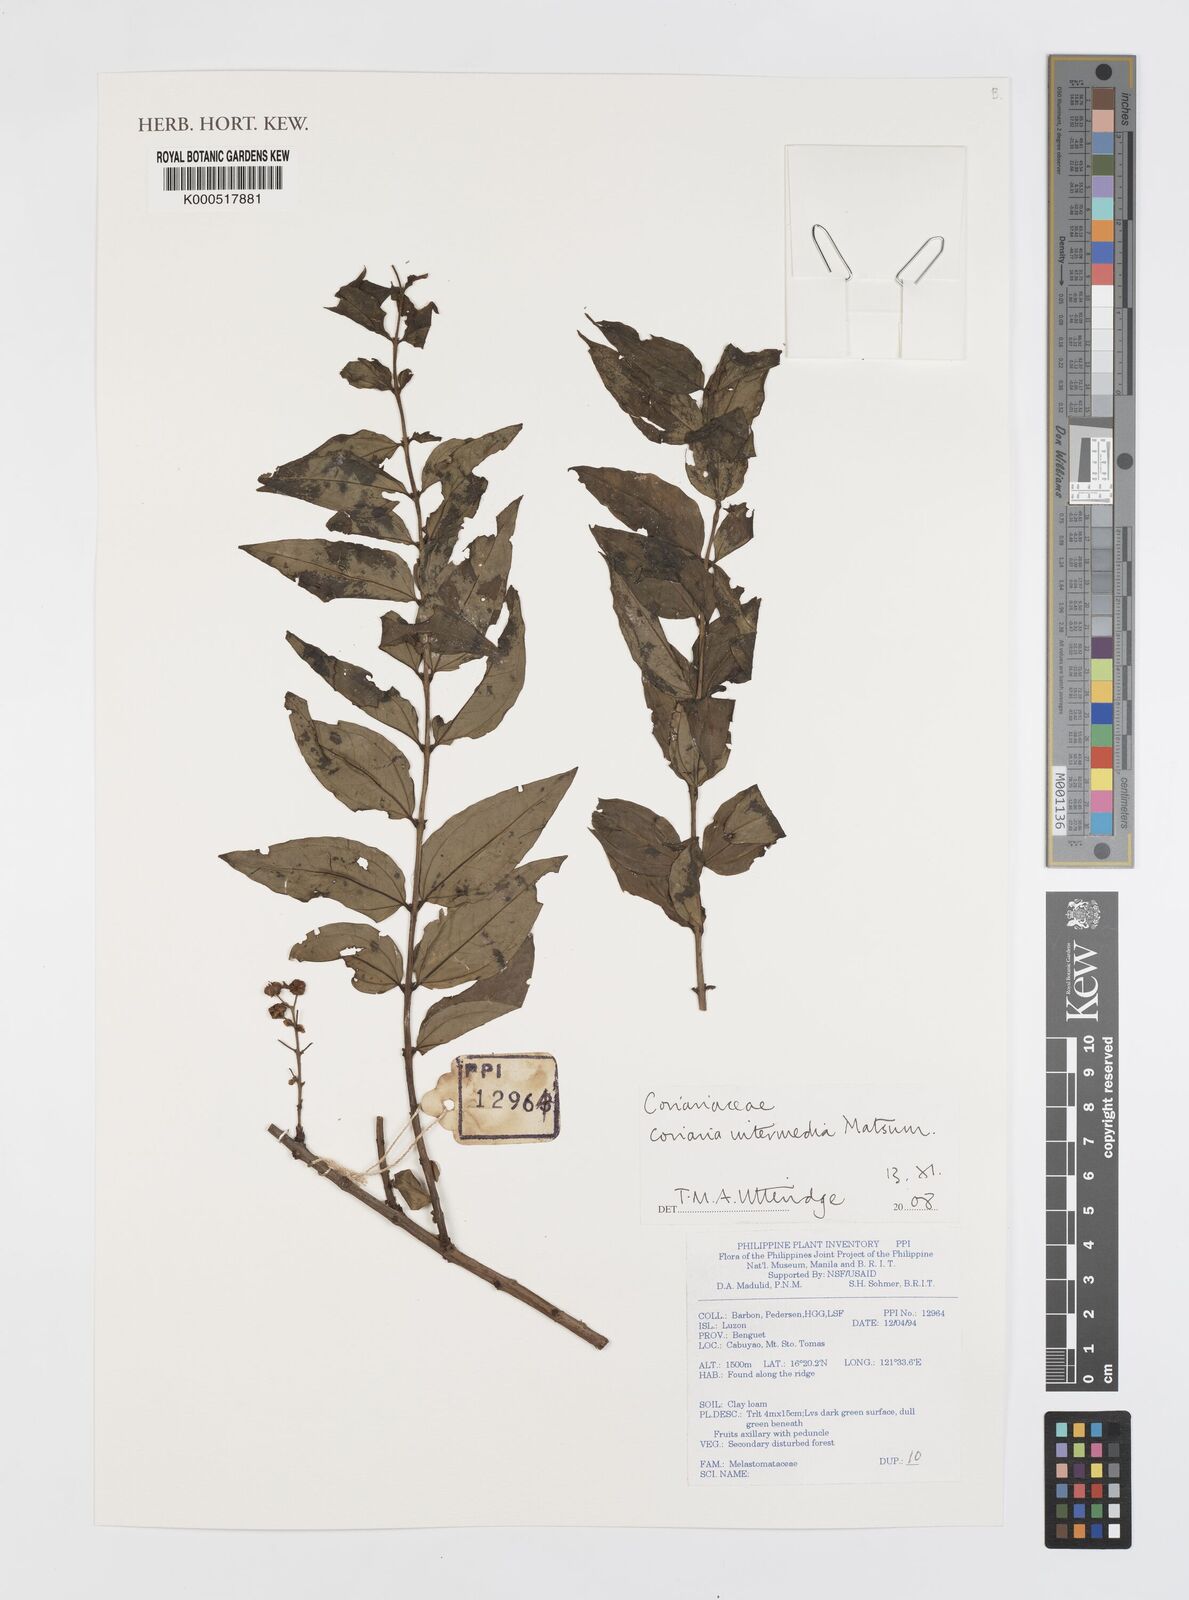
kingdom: Plantae
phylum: Tracheophyta
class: Magnoliopsida
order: Cucurbitales
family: Coriariaceae
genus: Coriaria
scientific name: Coriaria japonica
